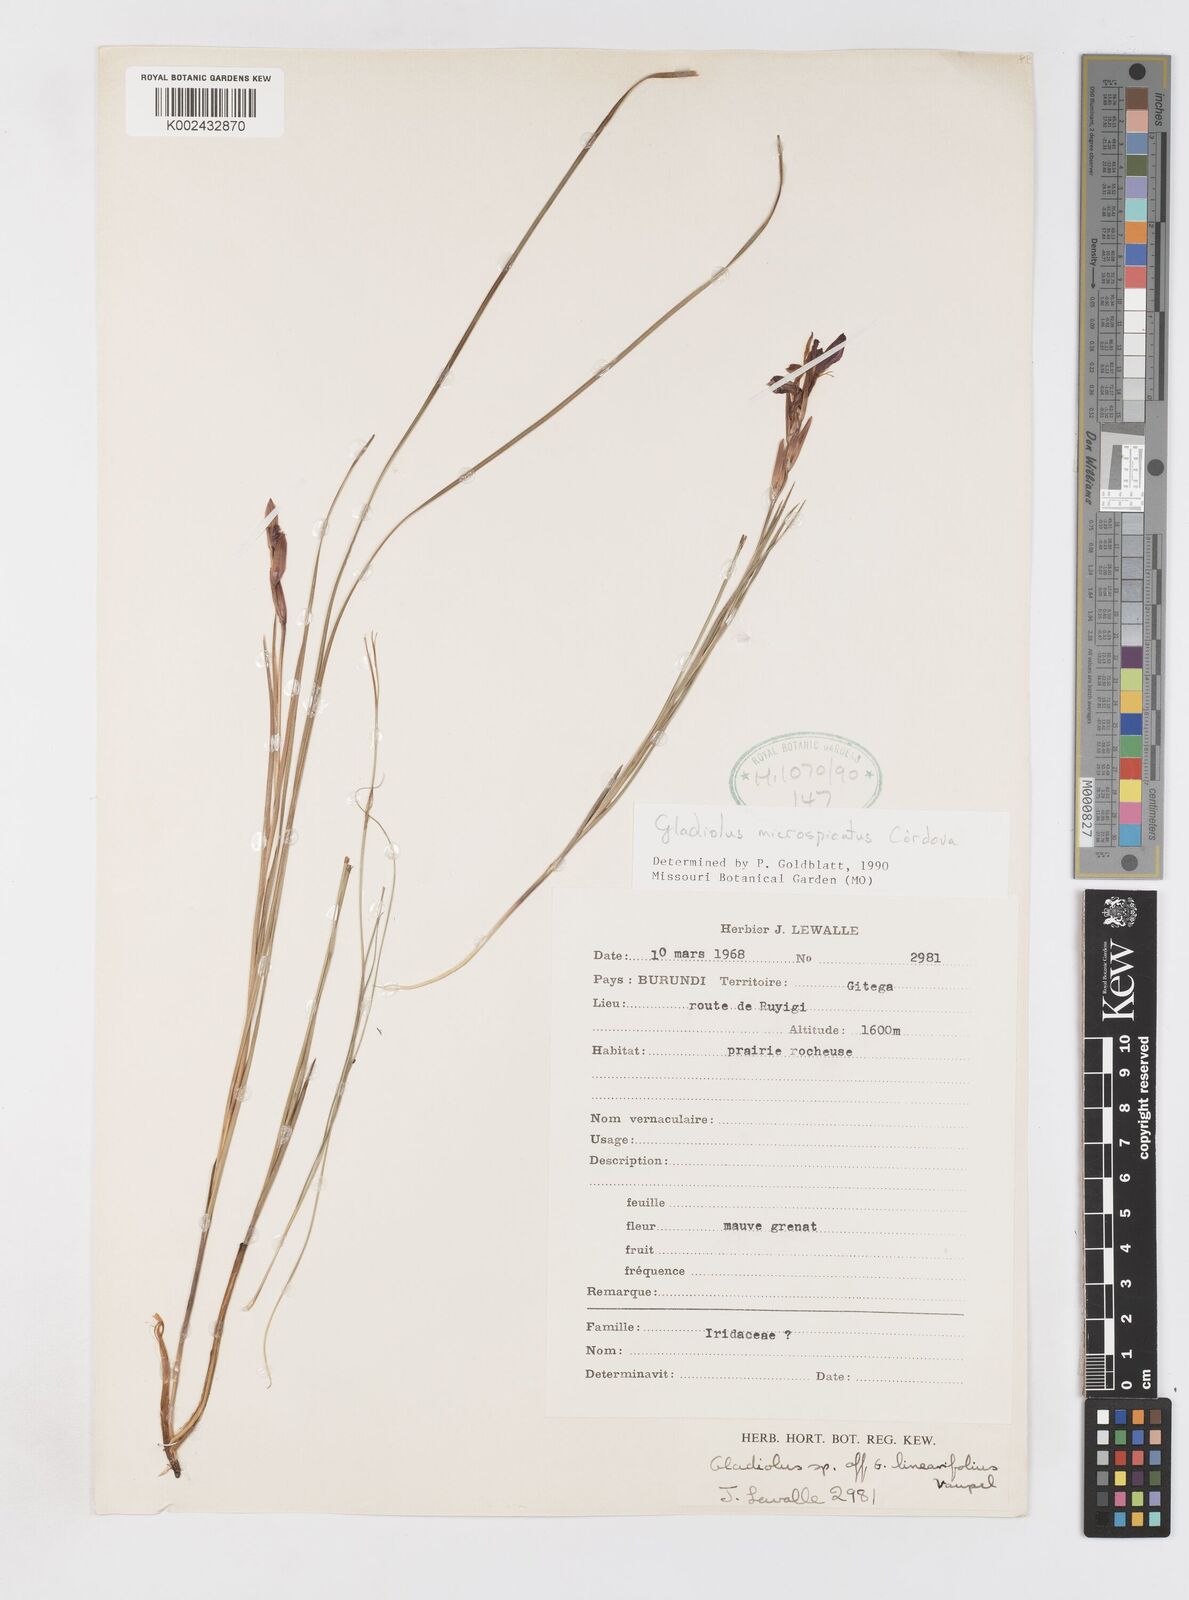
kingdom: Plantae
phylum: Tracheophyta
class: Liliopsida
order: Asparagales
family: Iridaceae
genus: Gladiolus
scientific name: Gladiolus microspicatus
